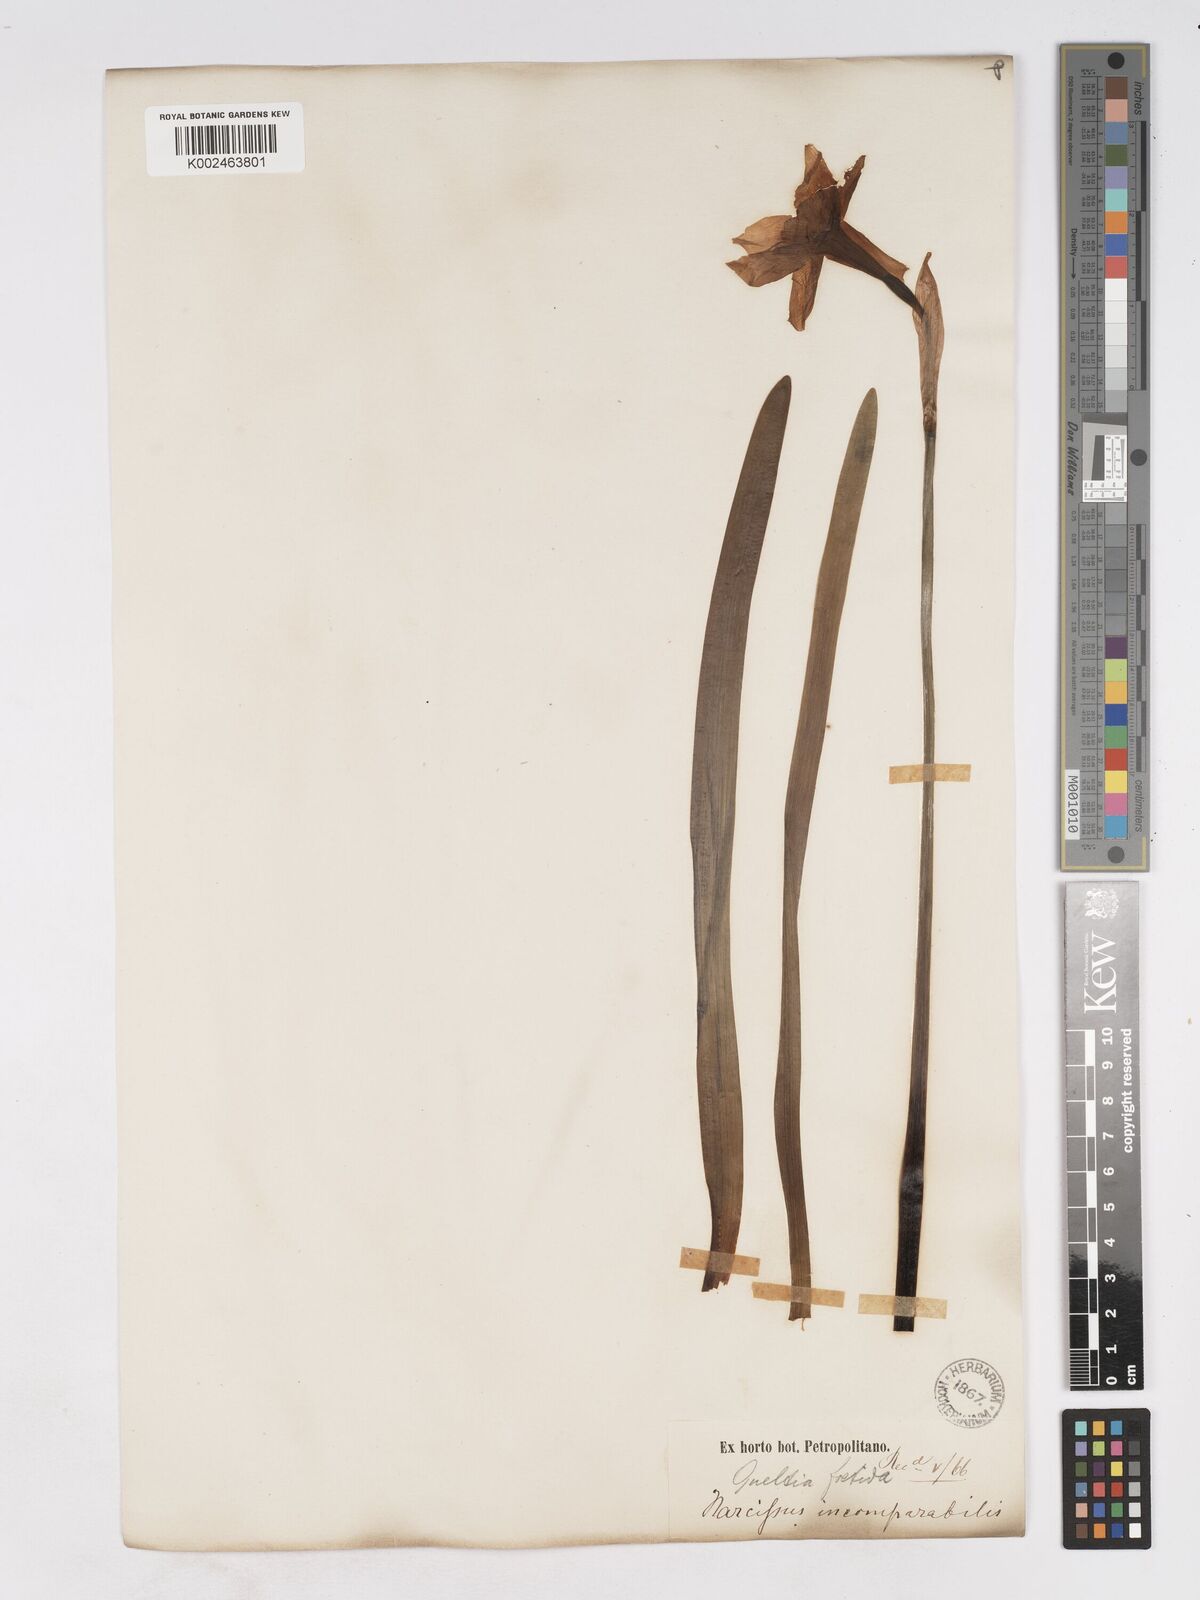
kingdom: Plantae
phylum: Tracheophyta
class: Liliopsida
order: Asparagales
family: Amaryllidaceae
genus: Narcissus
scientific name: Narcissus incomparabilis
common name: Nonesuch daffodil
